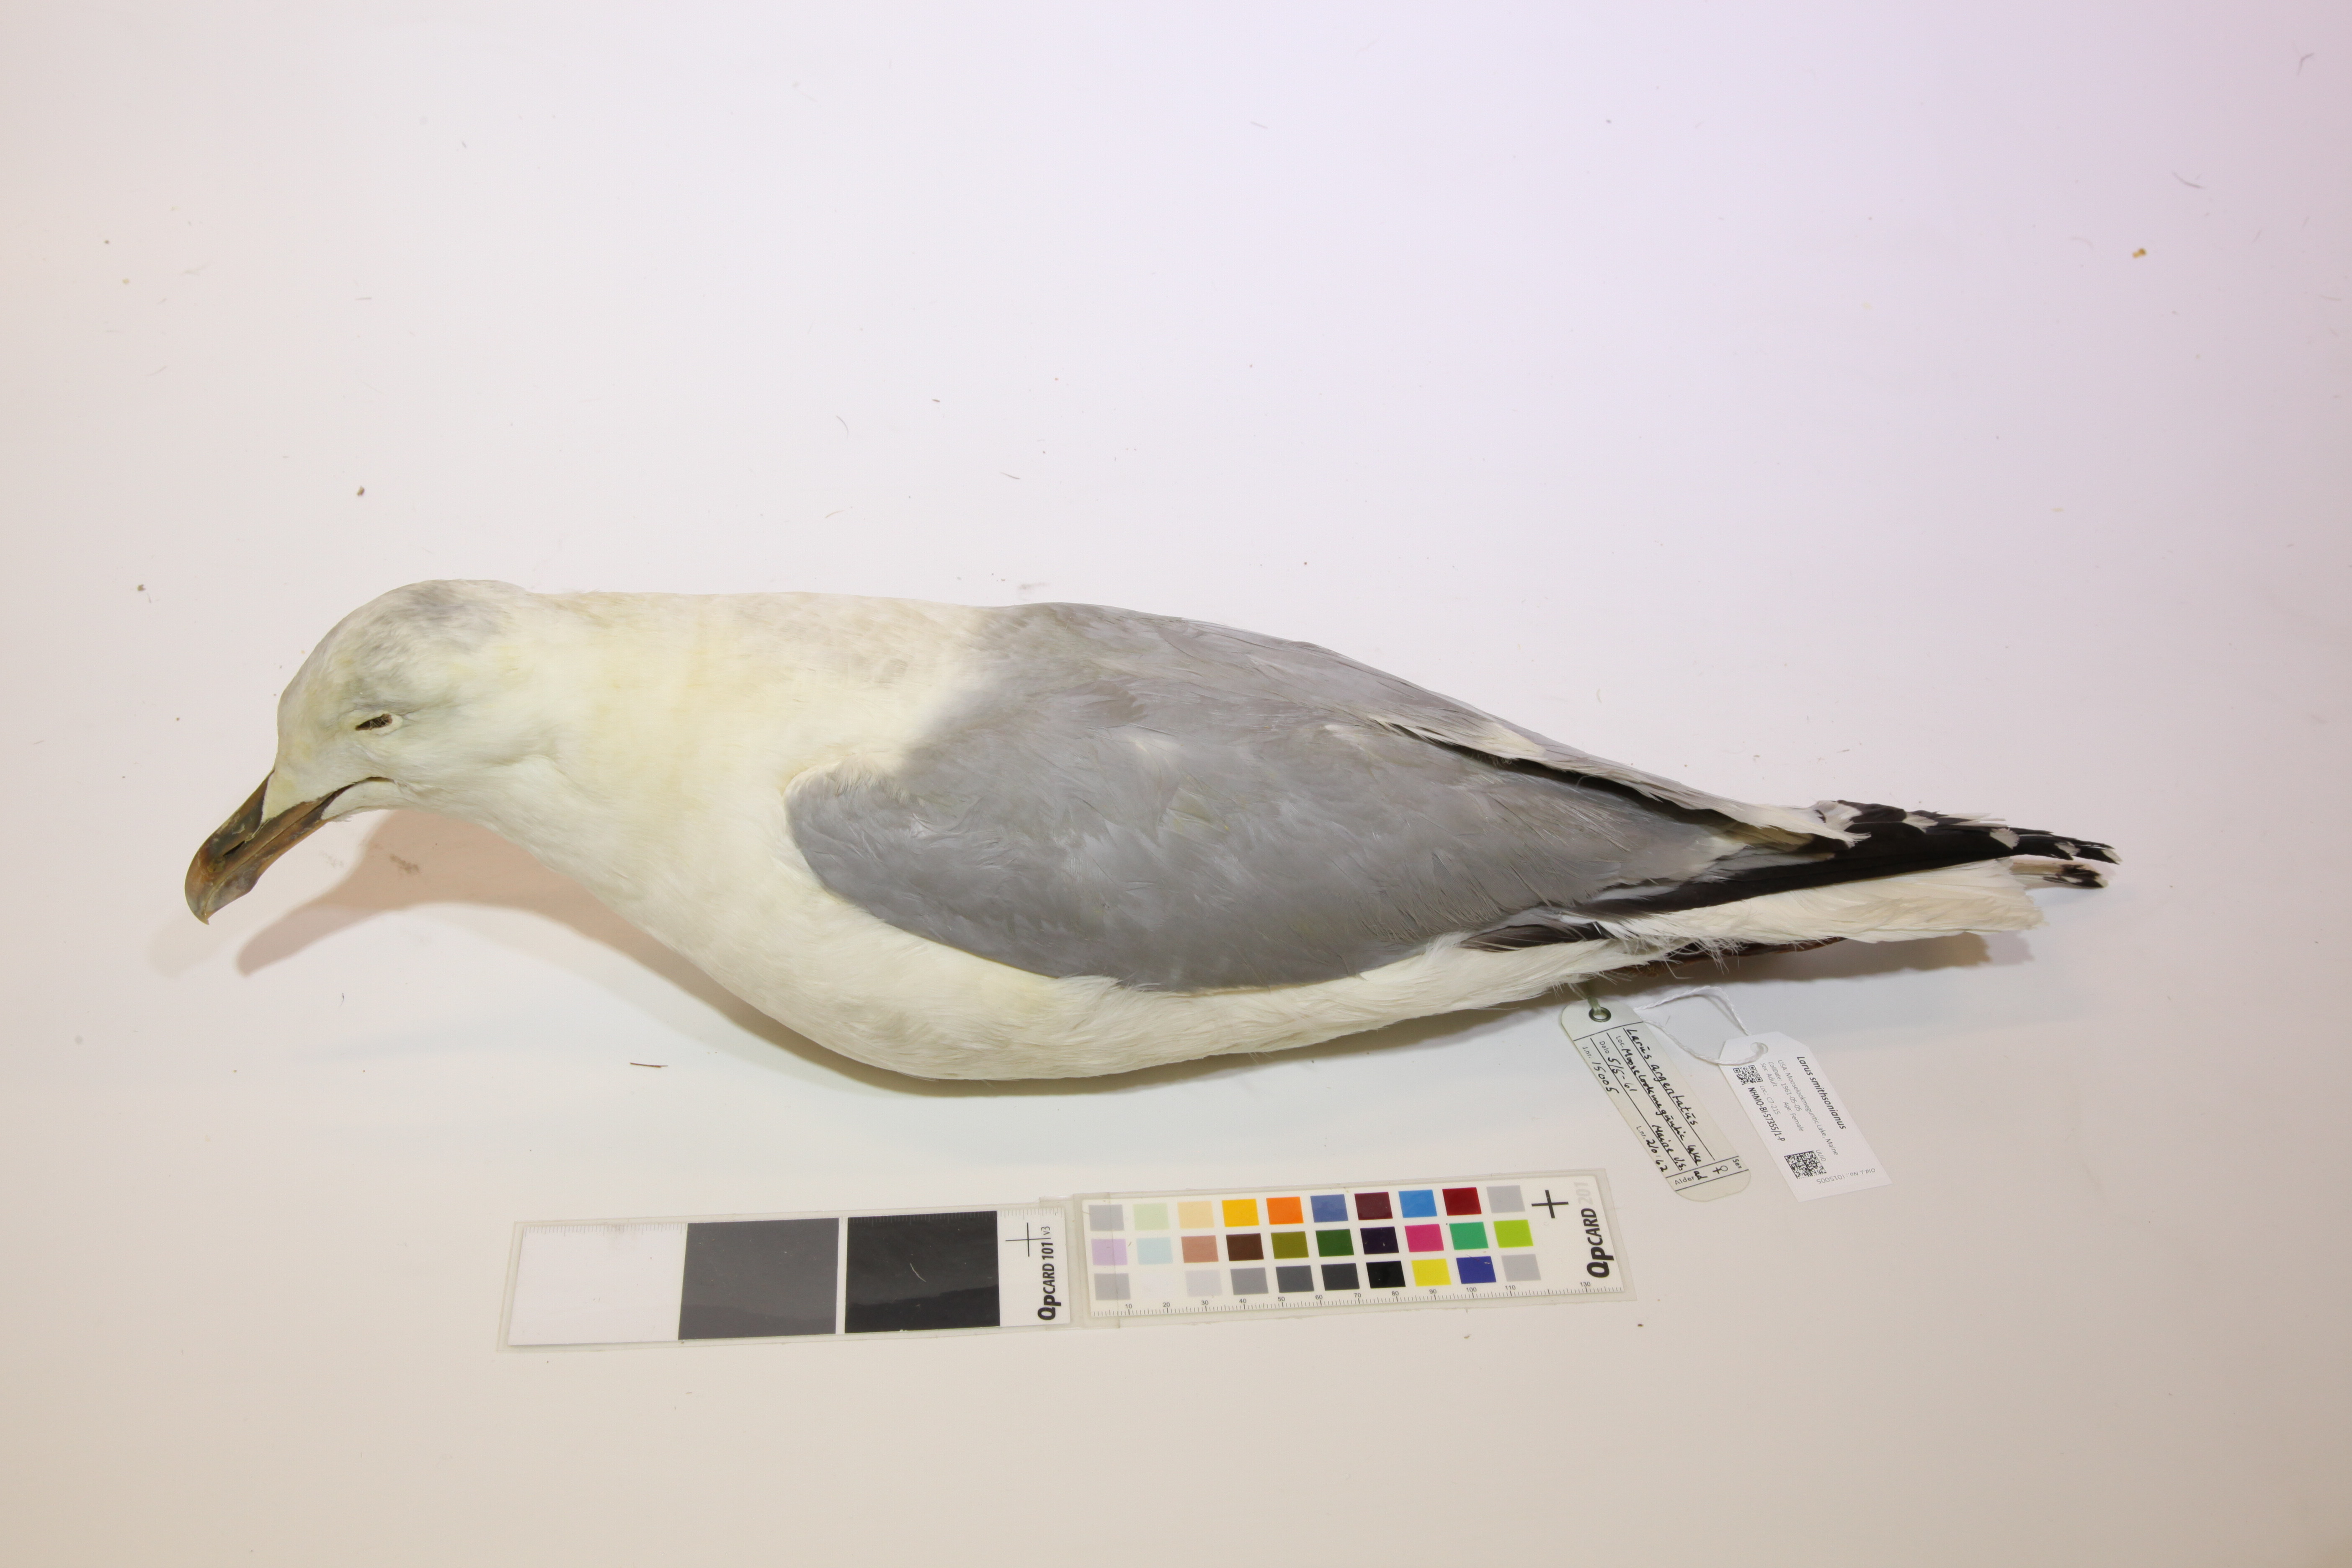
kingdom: Animalia
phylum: Chordata
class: Aves
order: Charadriiformes
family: Laridae
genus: Larus
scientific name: Larus smithsonianus
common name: American herring gull
